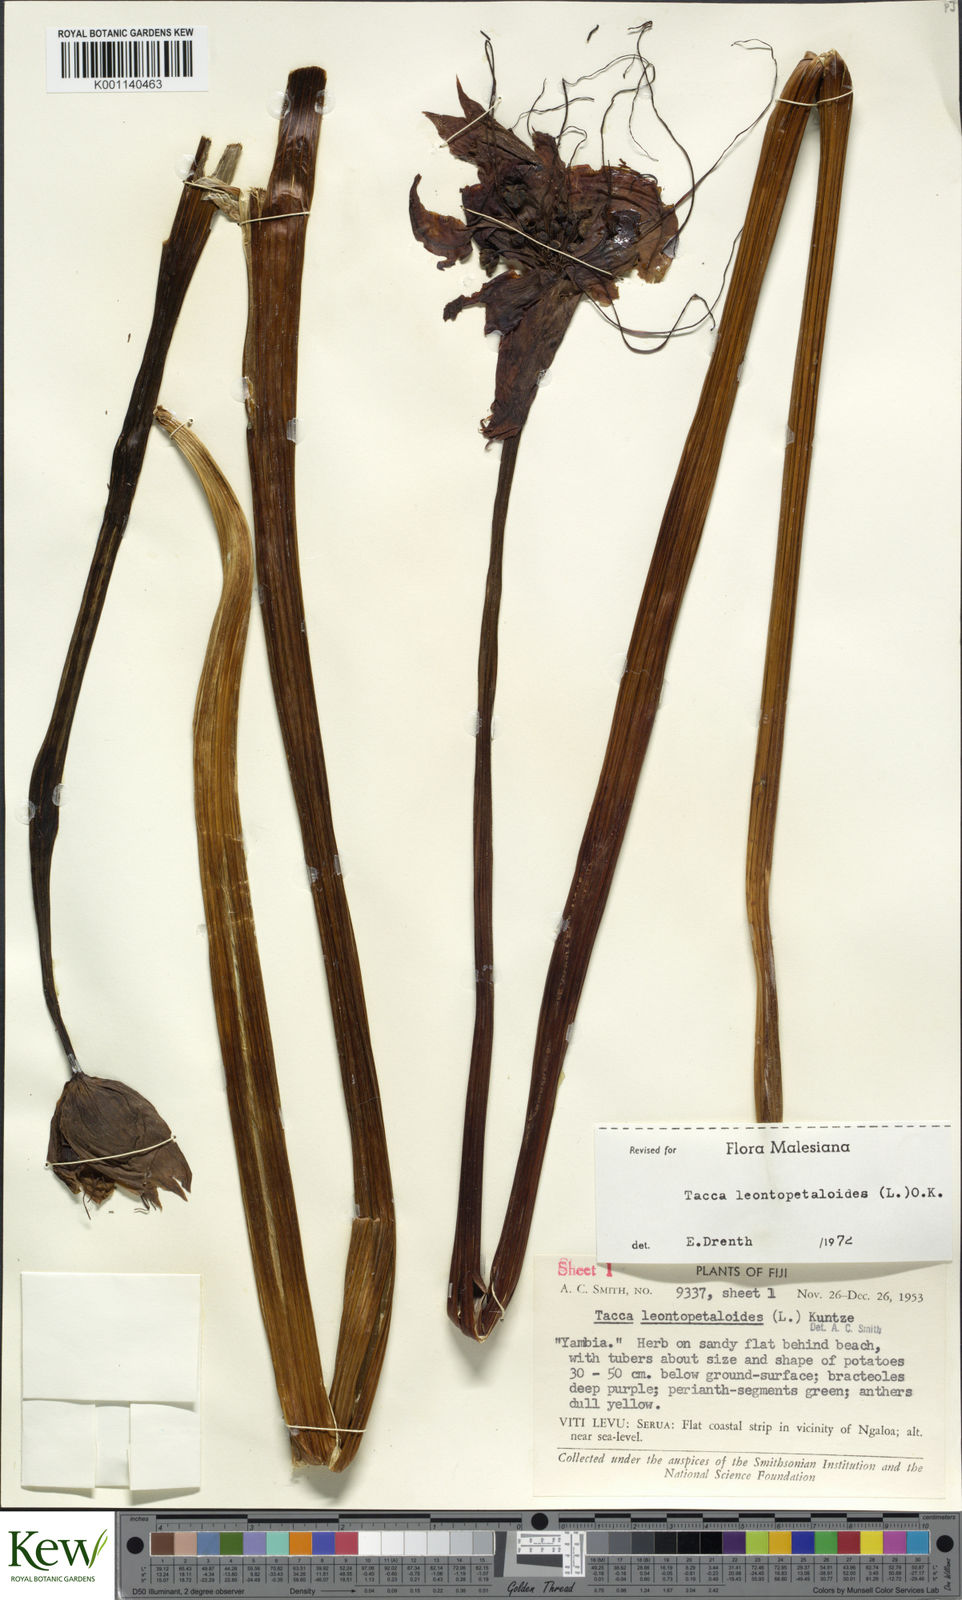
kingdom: Plantae
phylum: Tracheophyta
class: Liliopsida
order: Dioscoreales
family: Dioscoreaceae
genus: Tacca
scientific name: Tacca leontopetaloides
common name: Arrowroot
